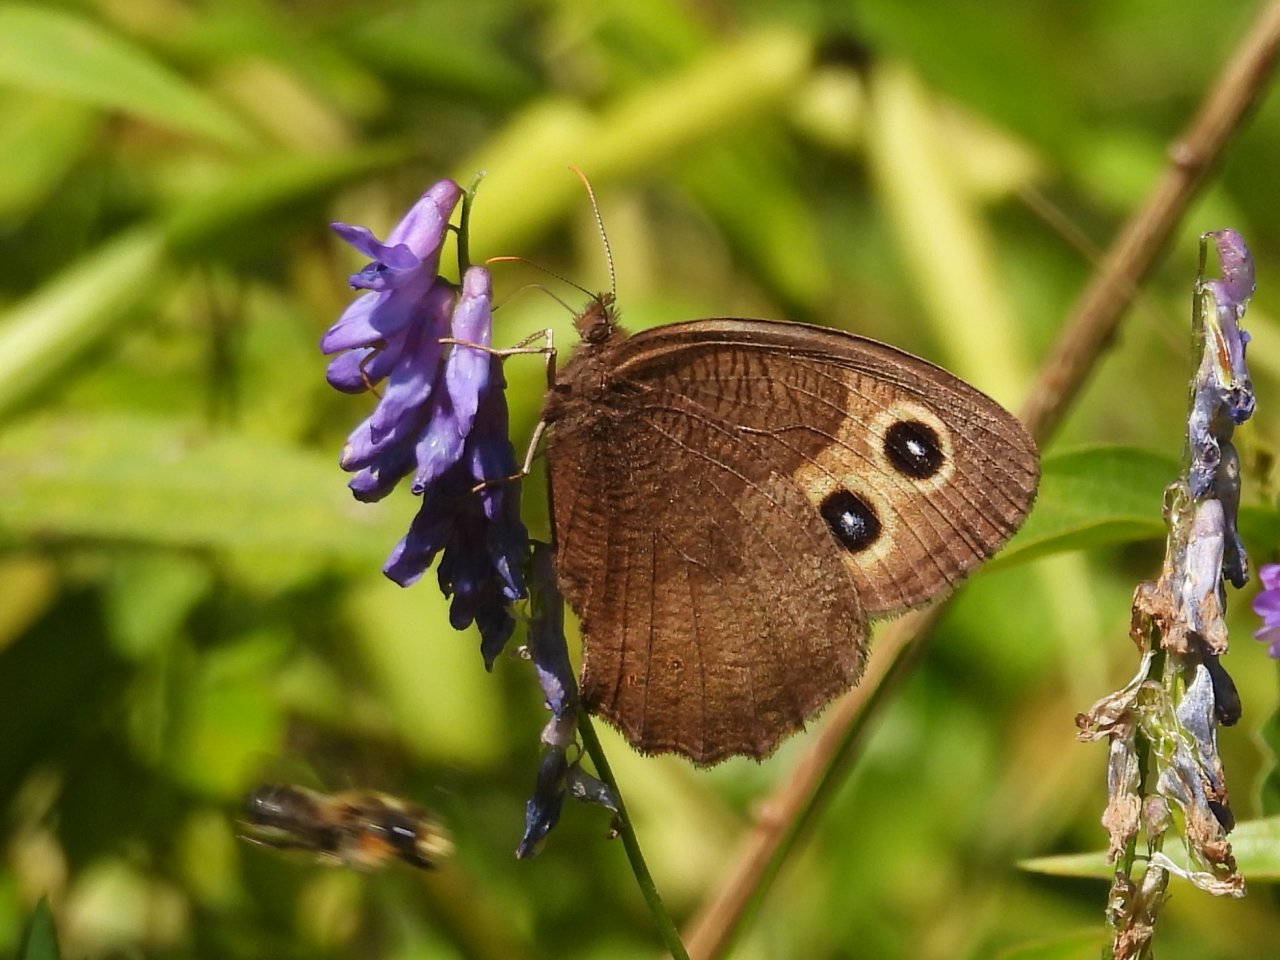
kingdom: Animalia
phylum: Arthropoda
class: Insecta
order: Lepidoptera
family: Nymphalidae
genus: Cercyonis
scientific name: Cercyonis pegala
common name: Common Wood-Nymph
